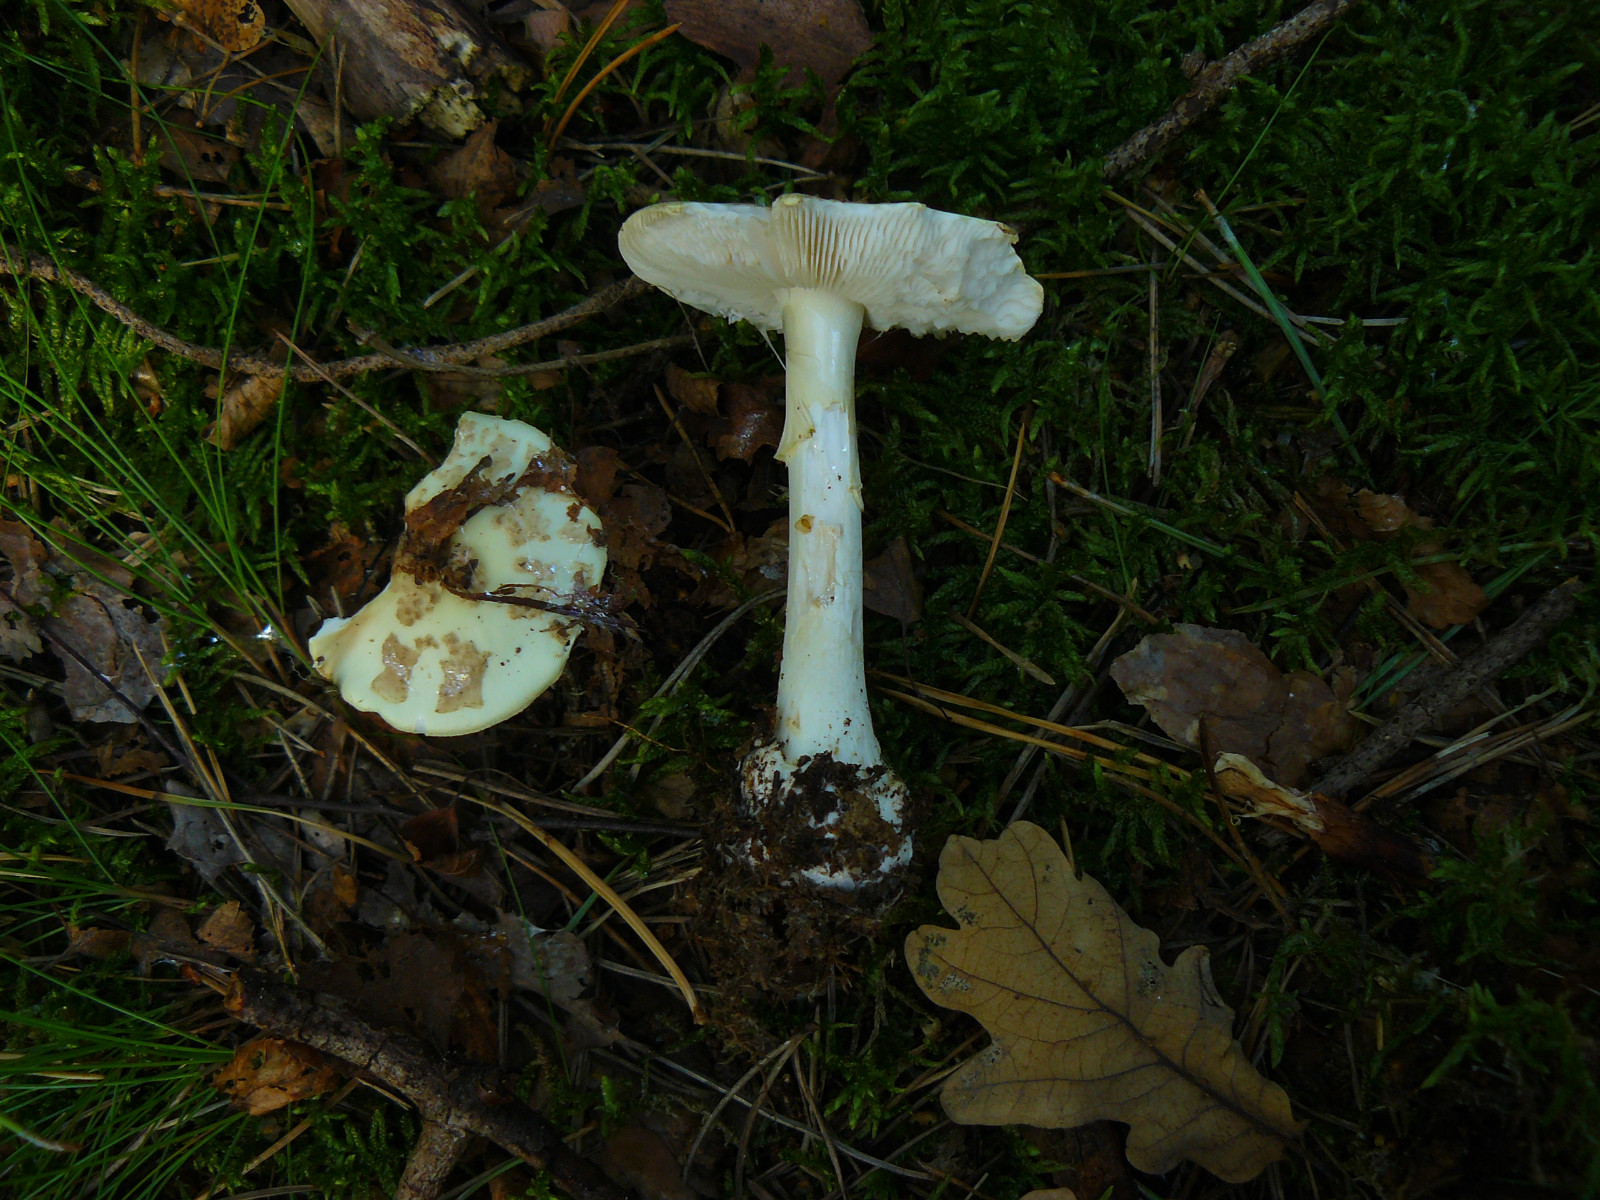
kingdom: Fungi
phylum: Basidiomycota
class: Agaricomycetes
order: Agaricales
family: Amanitaceae
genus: Amanita
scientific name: Amanita citrina
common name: kugleknoldet fluesvamp
